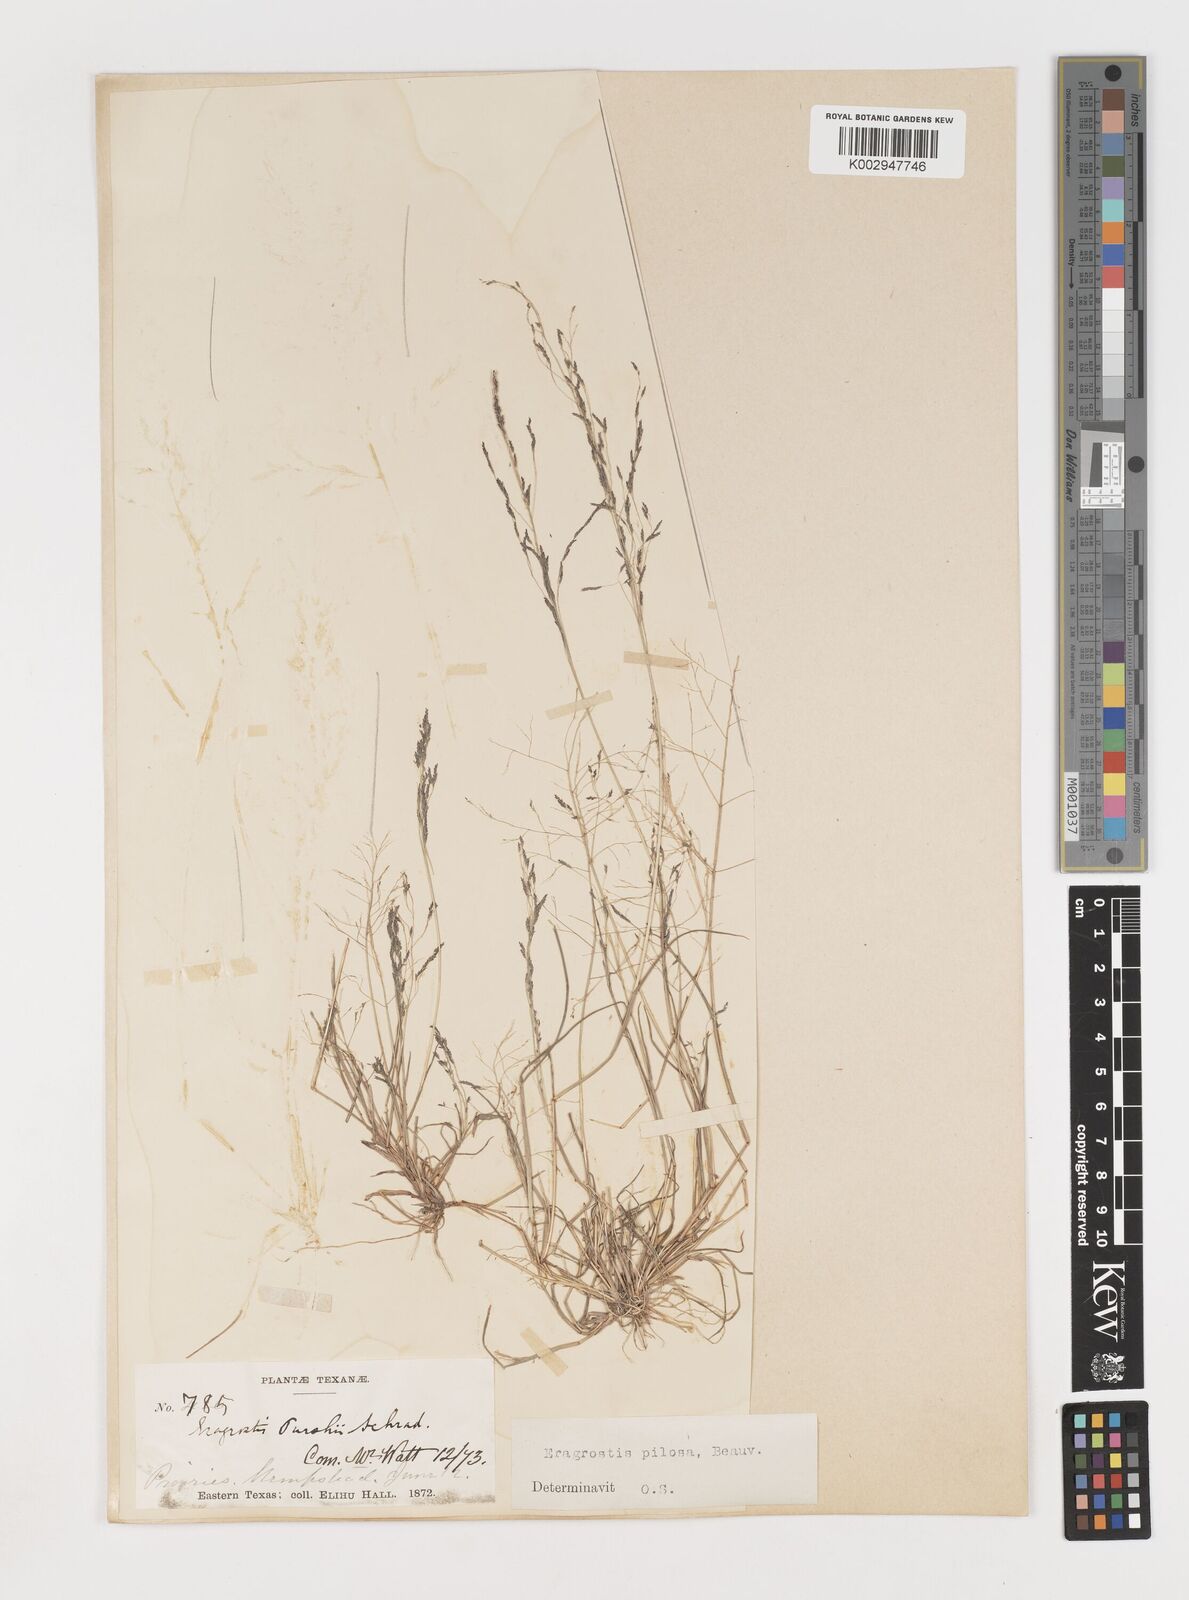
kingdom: Plantae
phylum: Tracheophyta
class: Liliopsida
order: Poales
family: Poaceae
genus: Eragrostis
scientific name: Eragrostis pilosa
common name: Indian lovegrass
